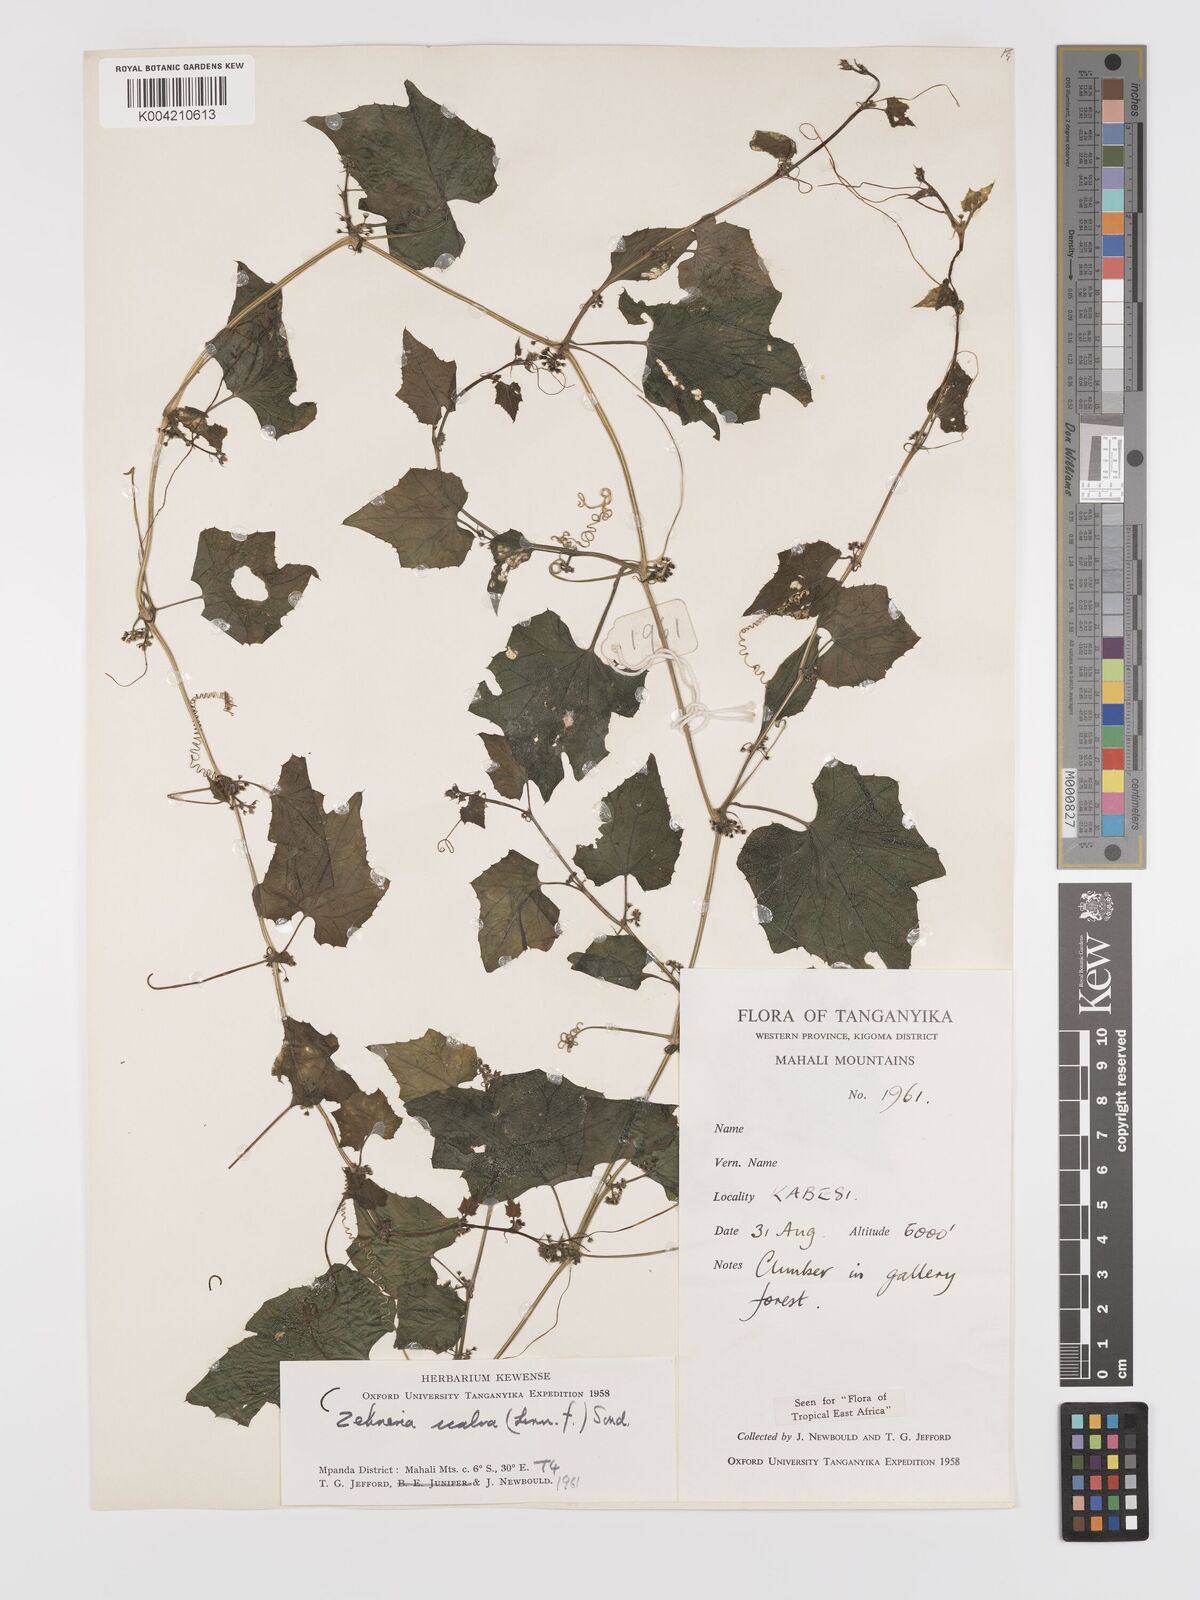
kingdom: Plantae
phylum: Tracheophyta
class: Magnoliopsida
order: Cucurbitales
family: Cucurbitaceae
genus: Zehneria
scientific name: Zehneria oligosperma
